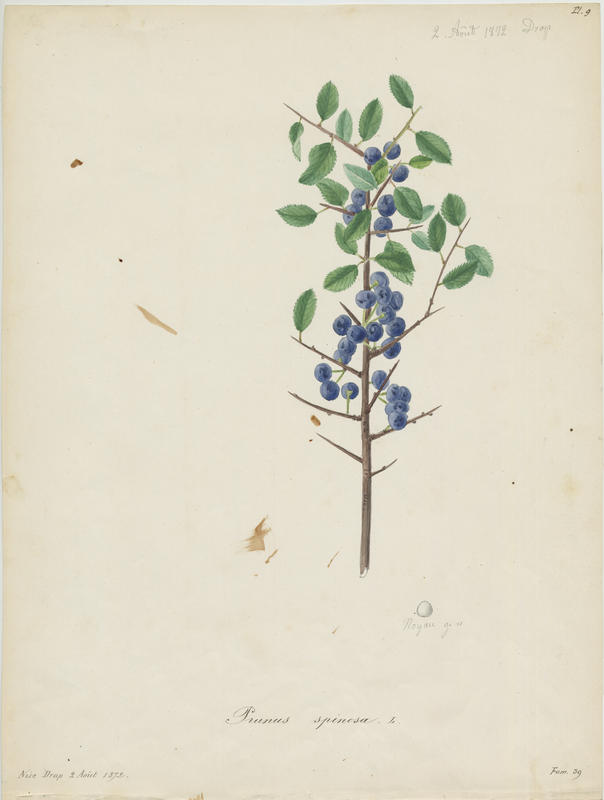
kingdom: Plantae
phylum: Tracheophyta
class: Magnoliopsida
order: Rosales
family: Rosaceae
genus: Prunus
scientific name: Prunus spinosa
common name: Blackthorn
